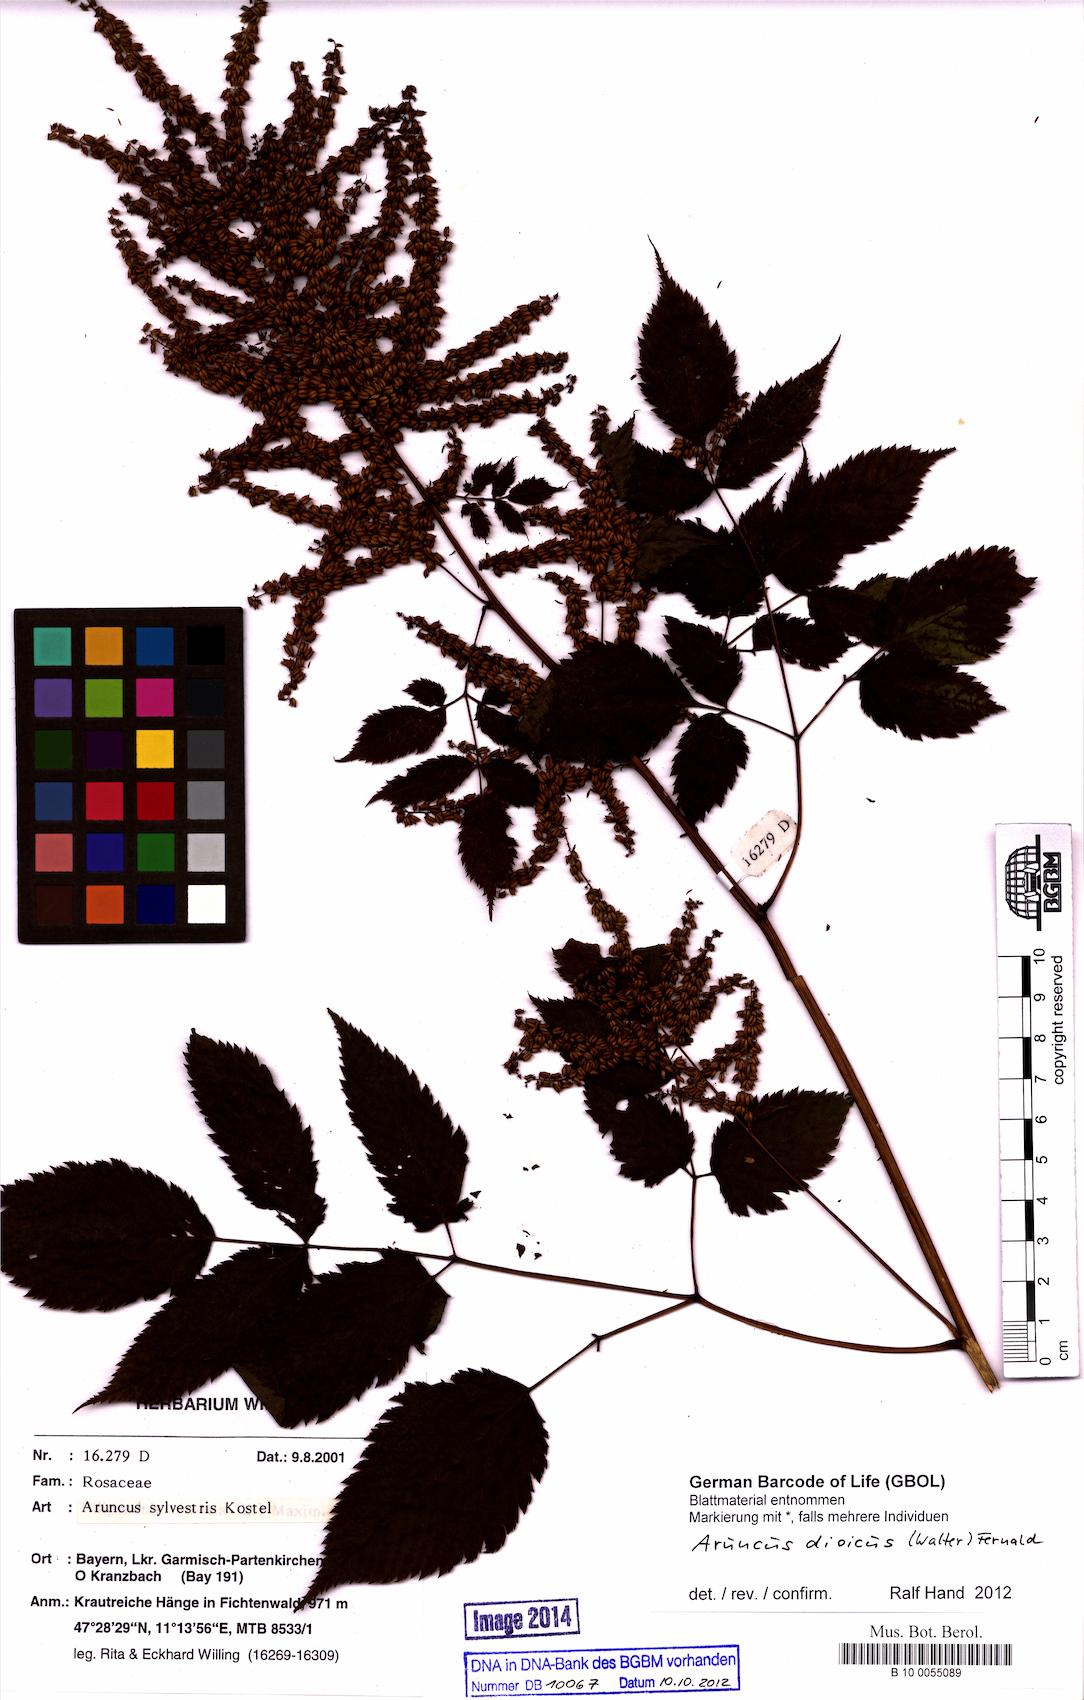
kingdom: Plantae
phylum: Tracheophyta
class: Magnoliopsida
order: Rosales
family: Rosaceae
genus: Aruncus
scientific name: Aruncus dioicus
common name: Buck's-beard
